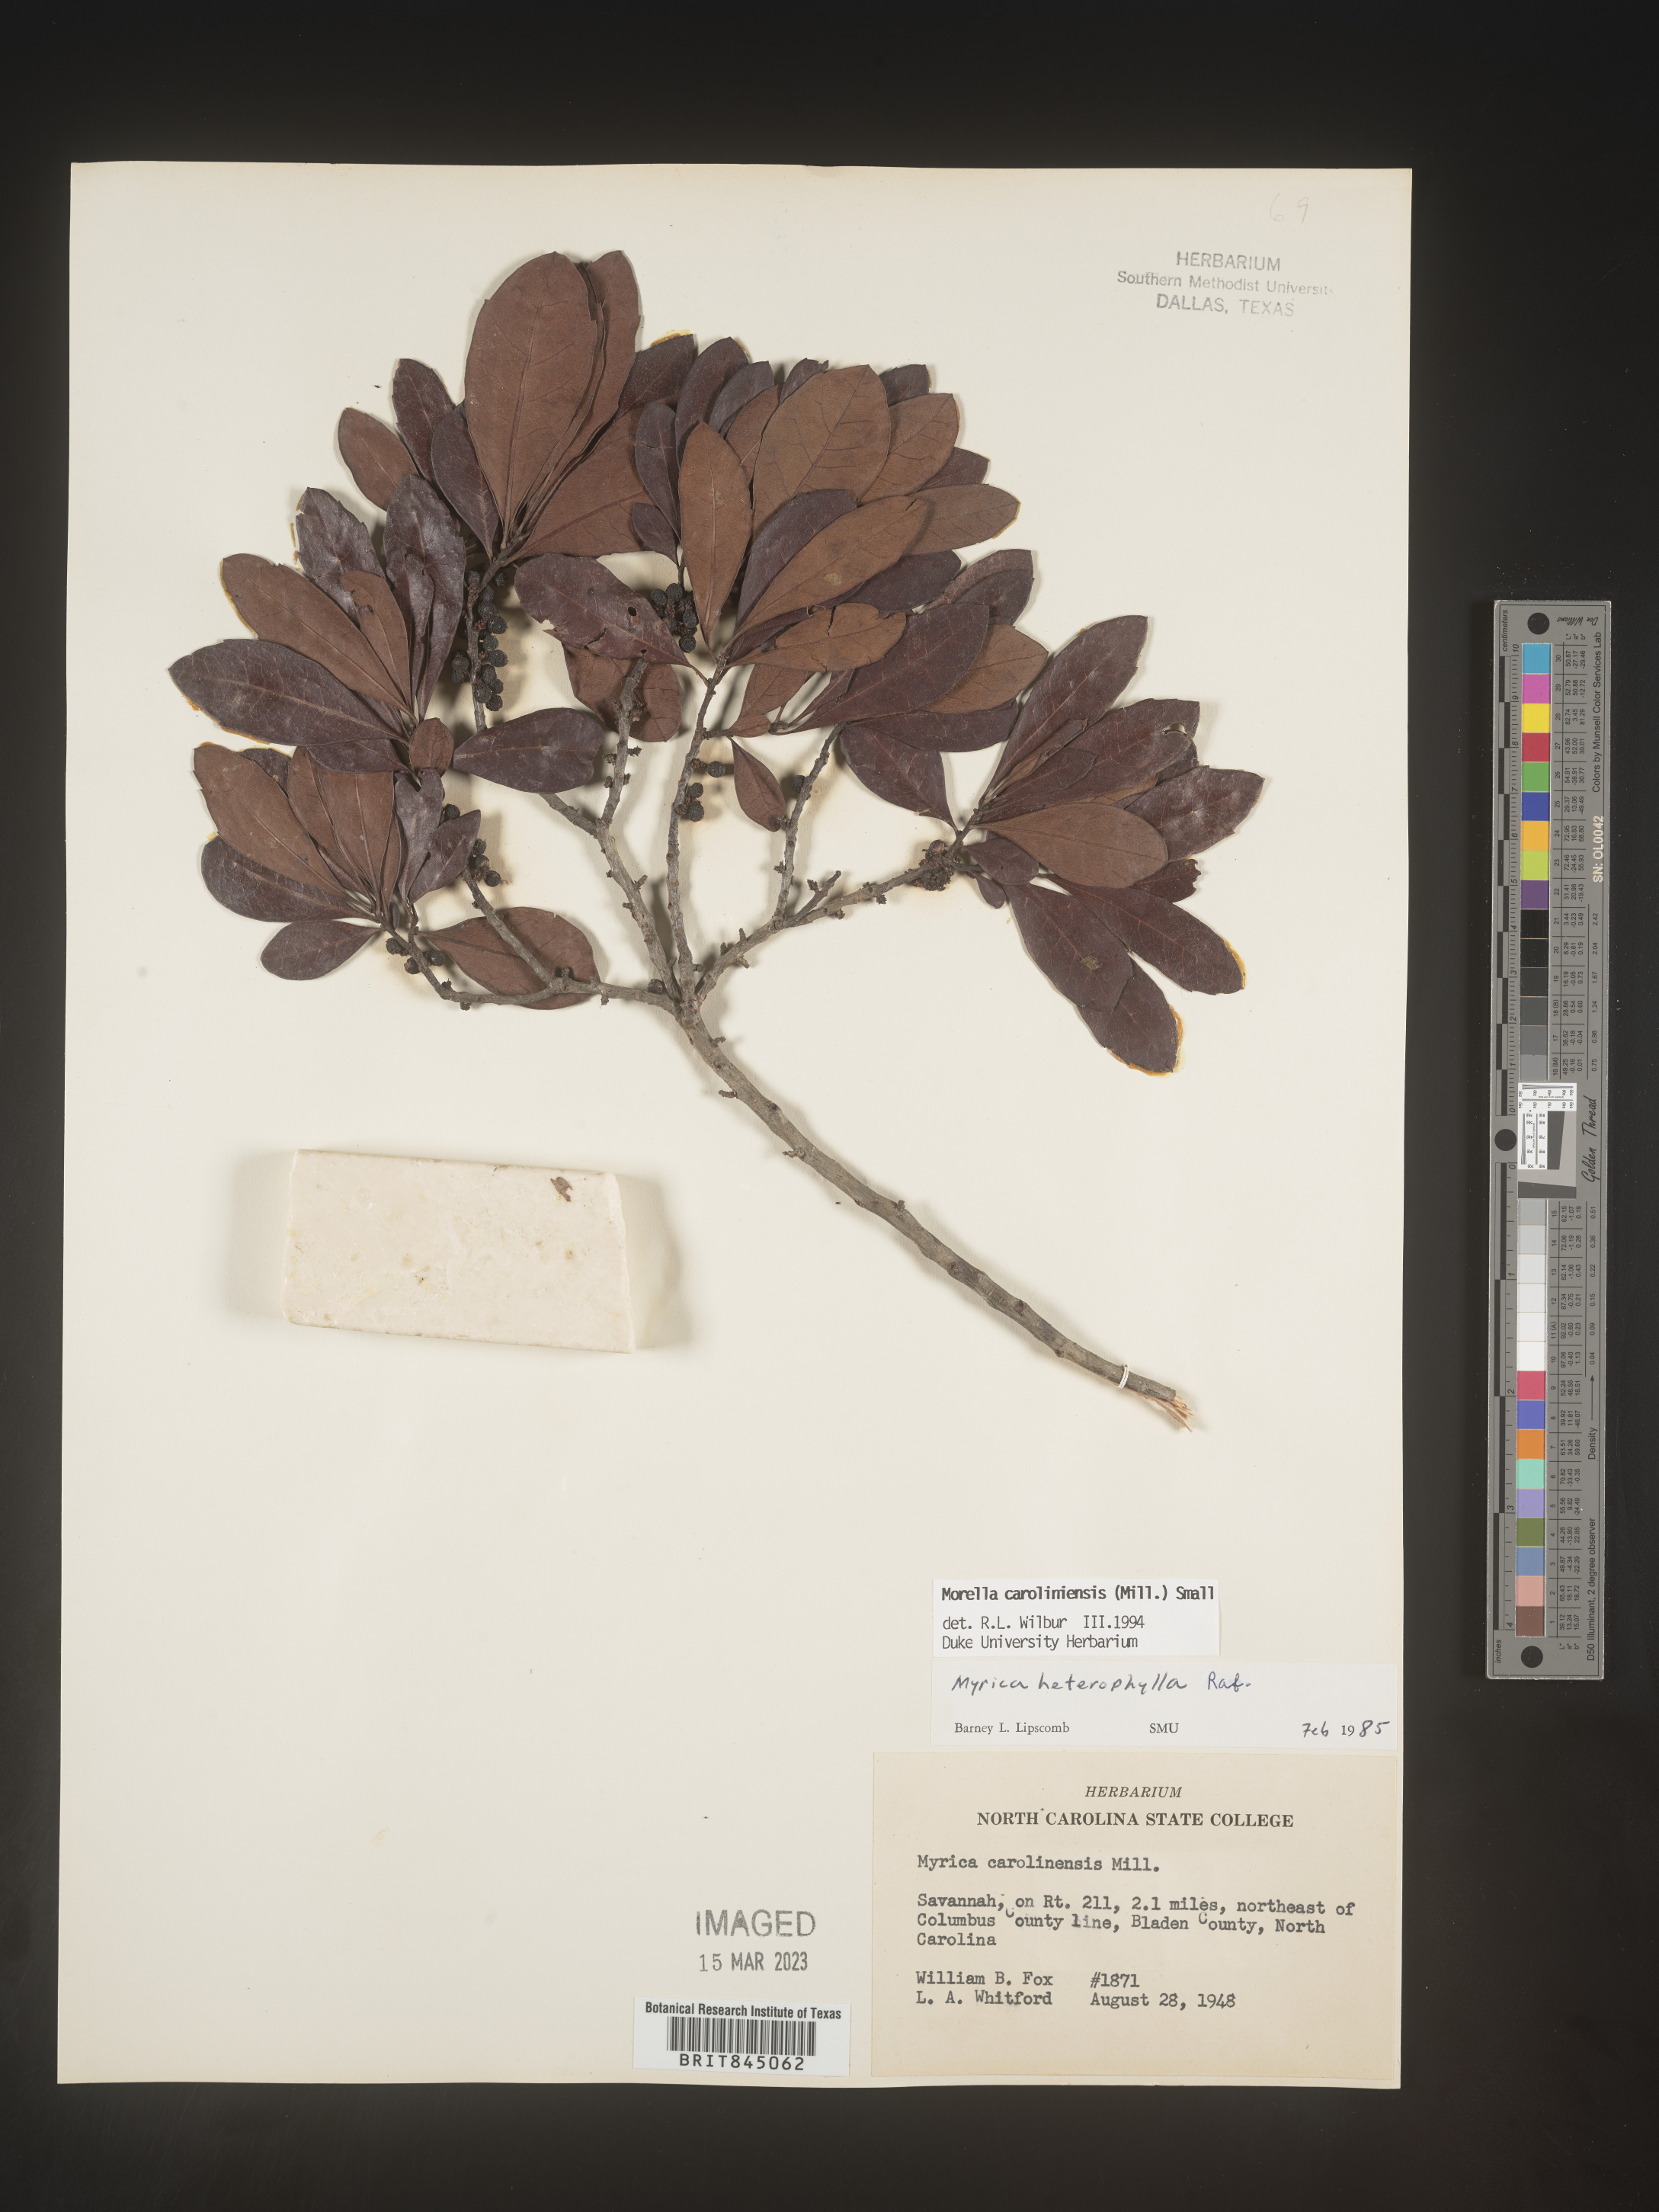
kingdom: Plantae
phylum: Tracheophyta
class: Magnoliopsida
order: Fagales
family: Myricaceae
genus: Morella
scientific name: Morella caroliniensis
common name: Evergreen bayberry
